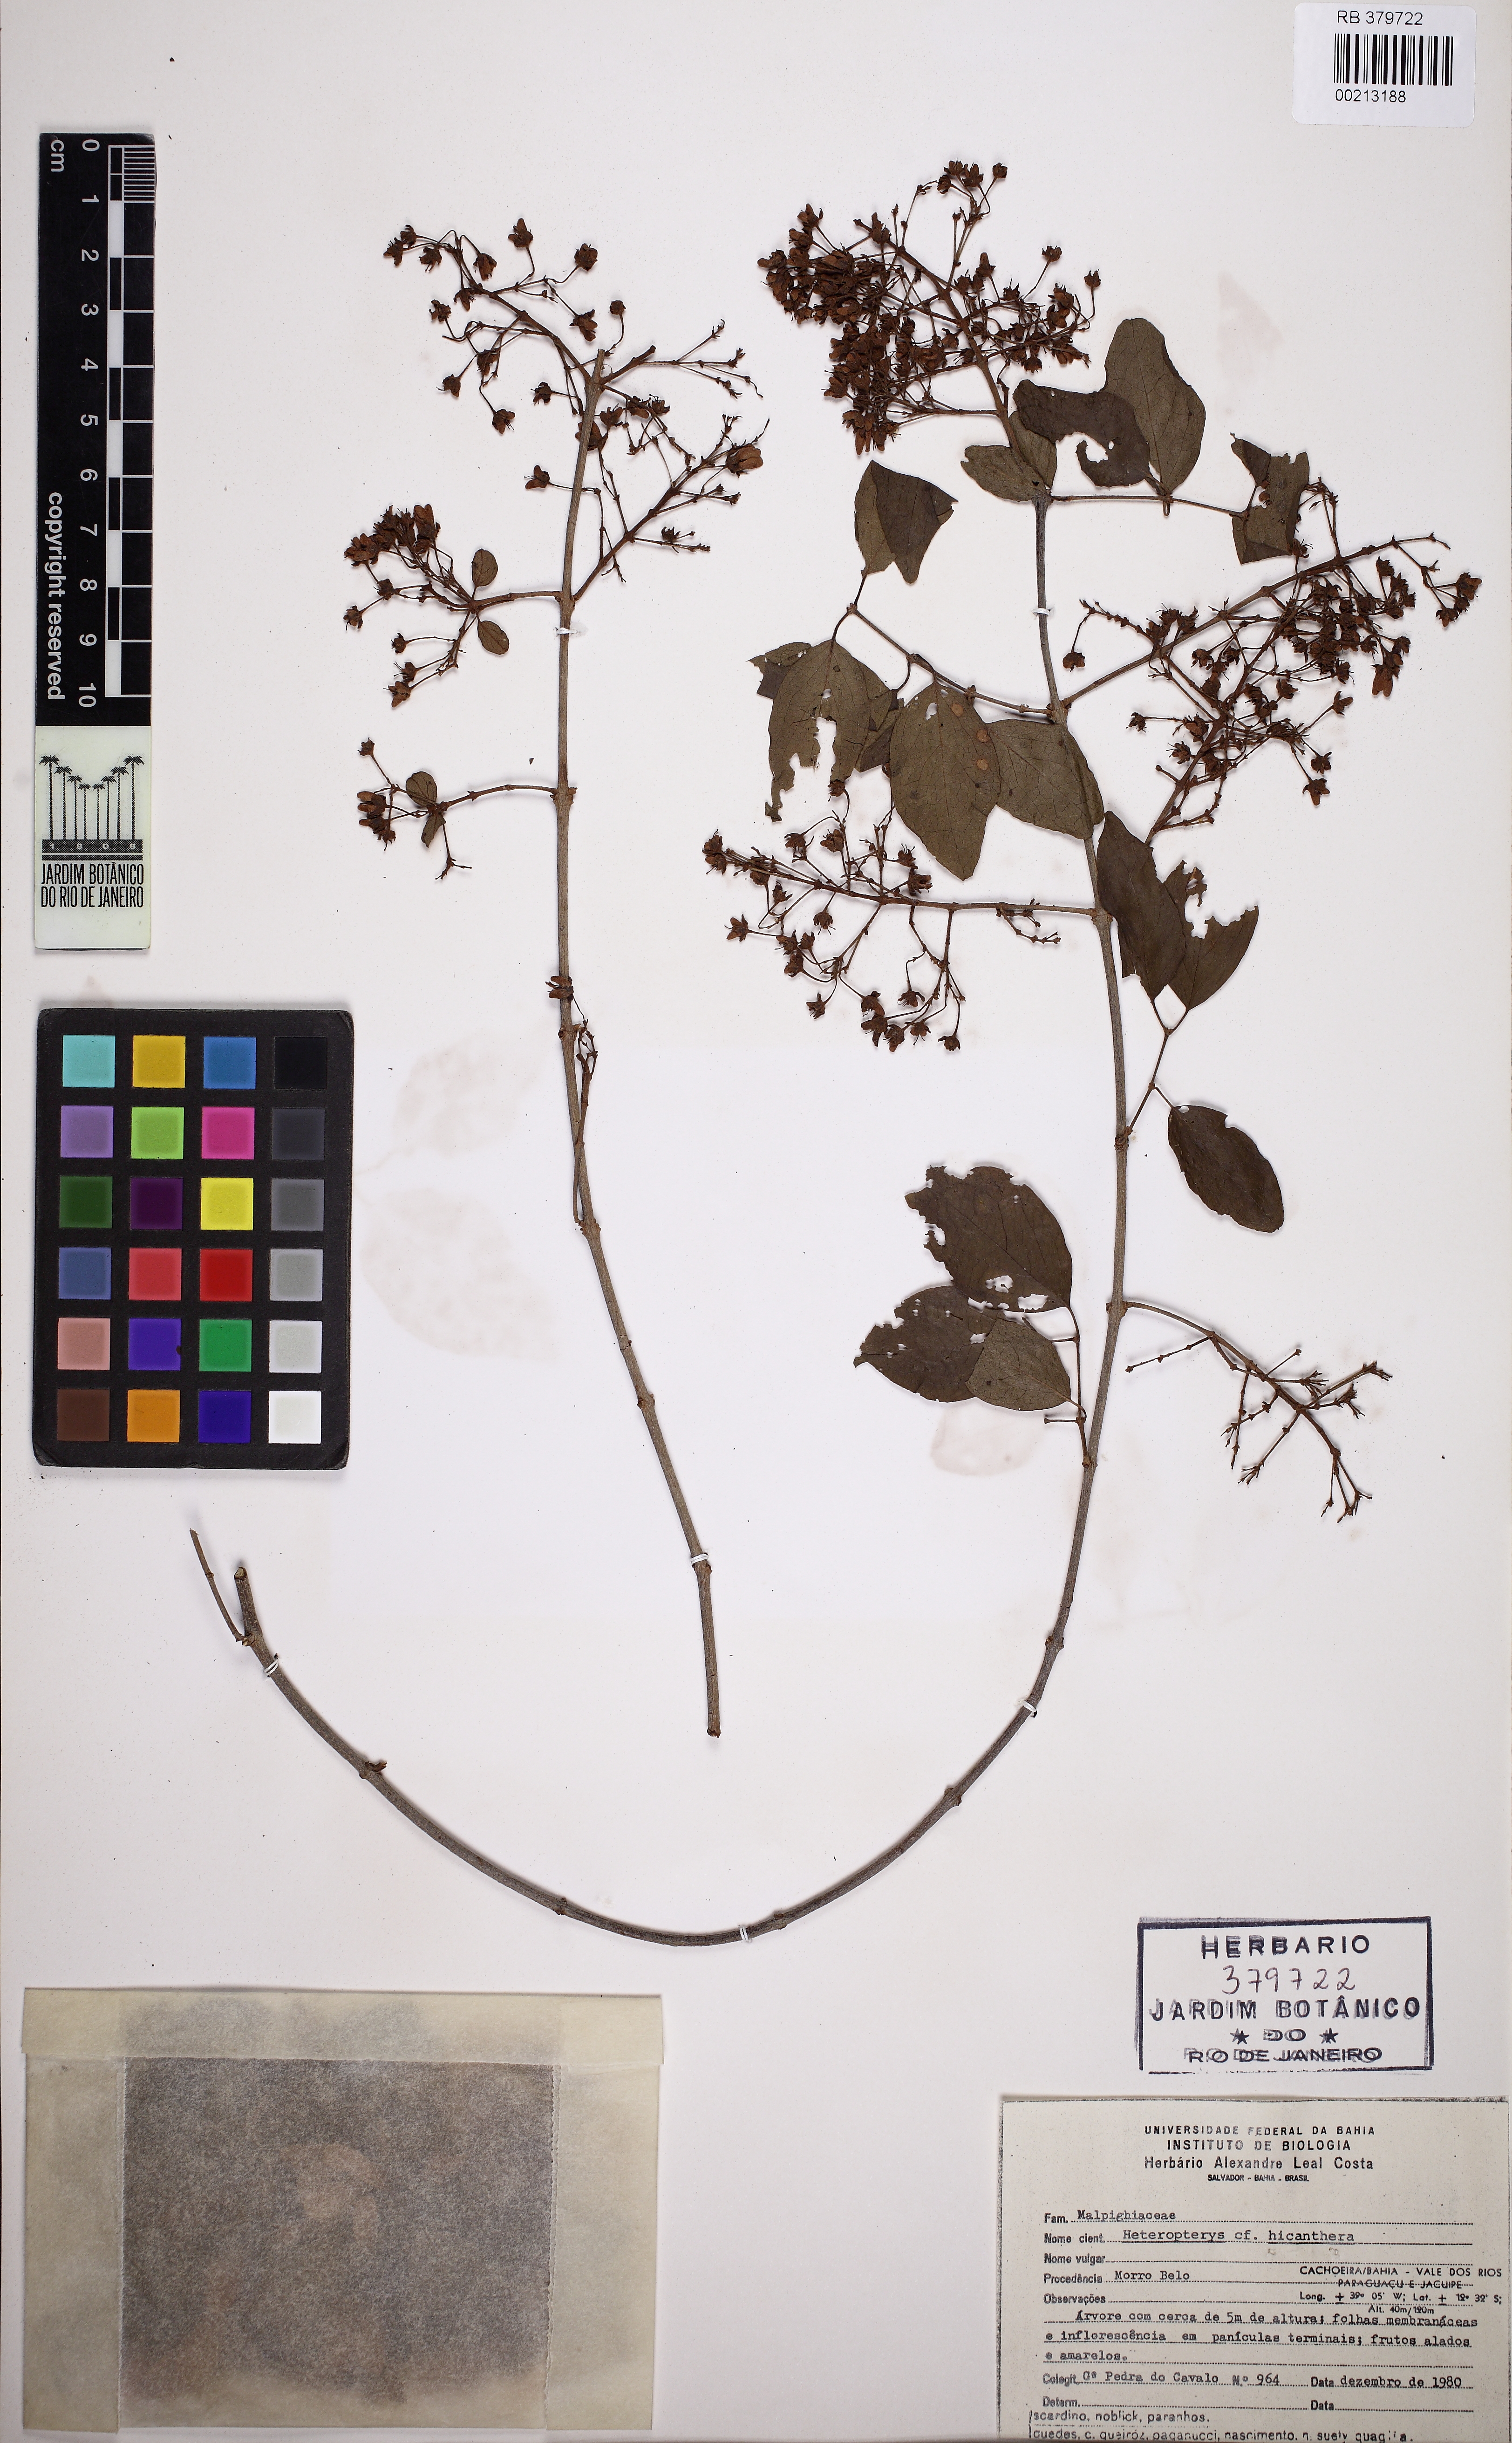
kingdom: Plantae
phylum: Tracheophyta
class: Magnoliopsida
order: Malpighiales
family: Malpighiaceae
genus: Heteropterys
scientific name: Heteropterys hypericifolia
